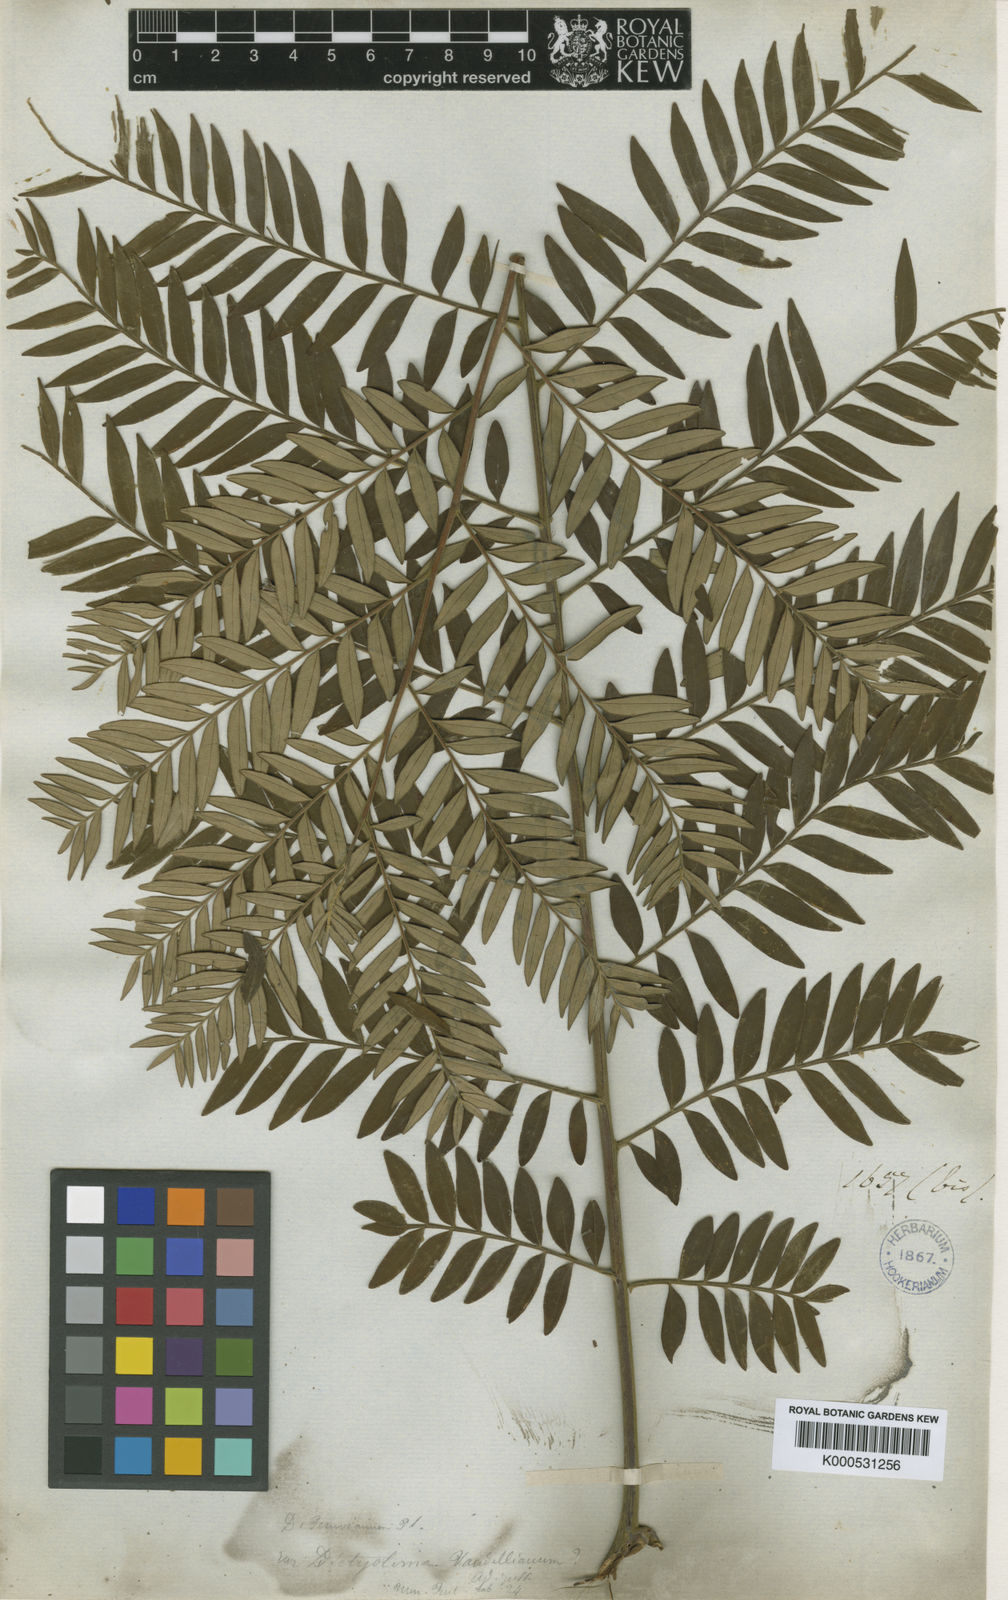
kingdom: Plantae
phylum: Tracheophyta
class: Magnoliopsida
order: Sapindales
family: Rutaceae
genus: Dictyoloma
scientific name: Dictyoloma vandellianum
